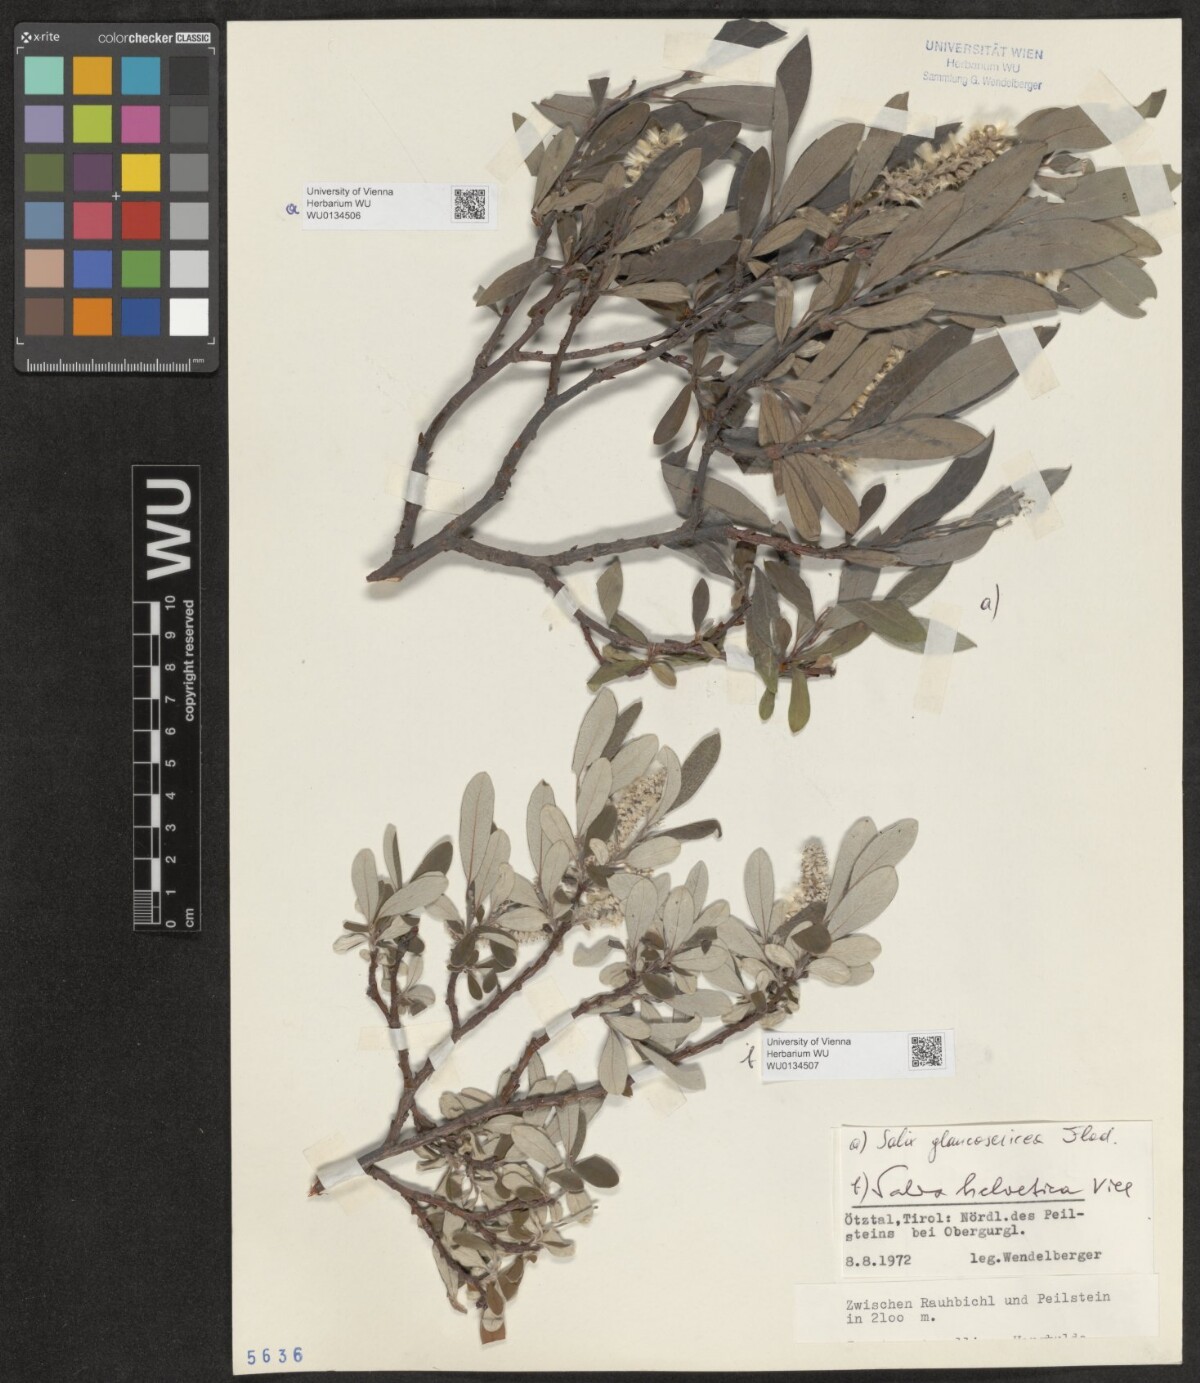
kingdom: Plantae
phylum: Tracheophyta
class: Magnoliopsida
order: Malpighiales
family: Salicaceae
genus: Salix
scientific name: Salix glaucosericea
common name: Alpine gray willow
